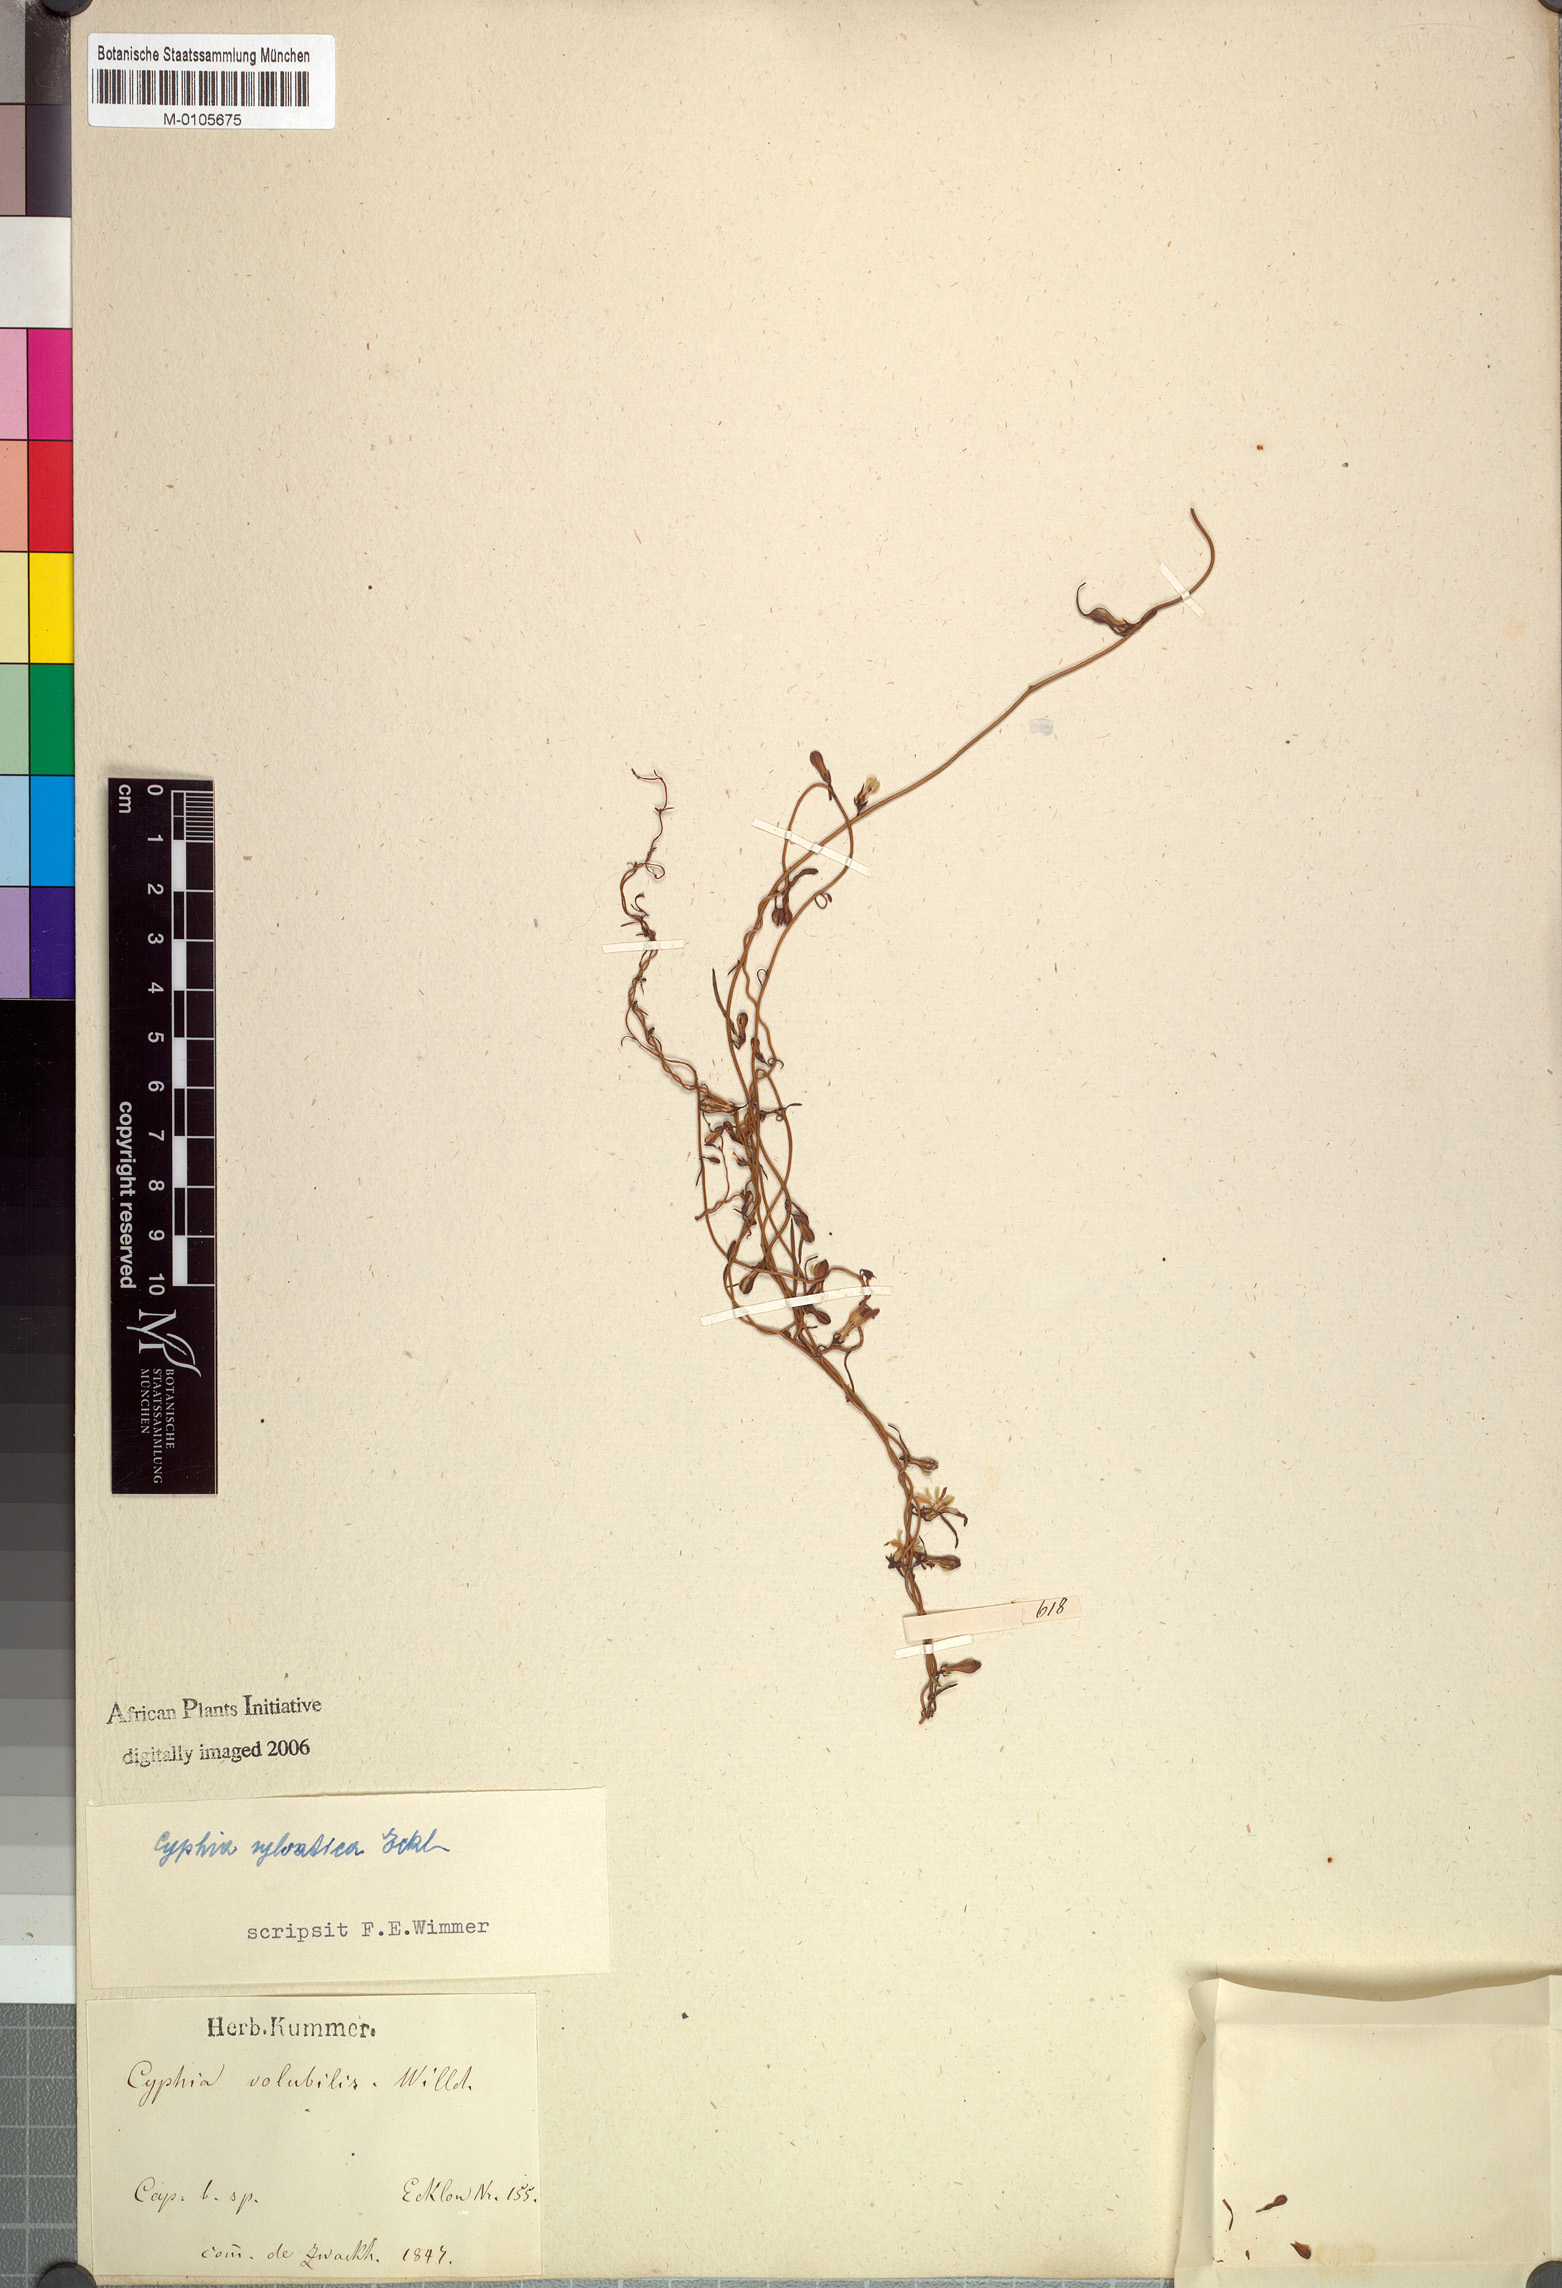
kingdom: Plantae
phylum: Tracheophyta
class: Magnoliopsida
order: Asterales
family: Campanulaceae
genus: Cyphia
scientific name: Cyphia sylvatica
